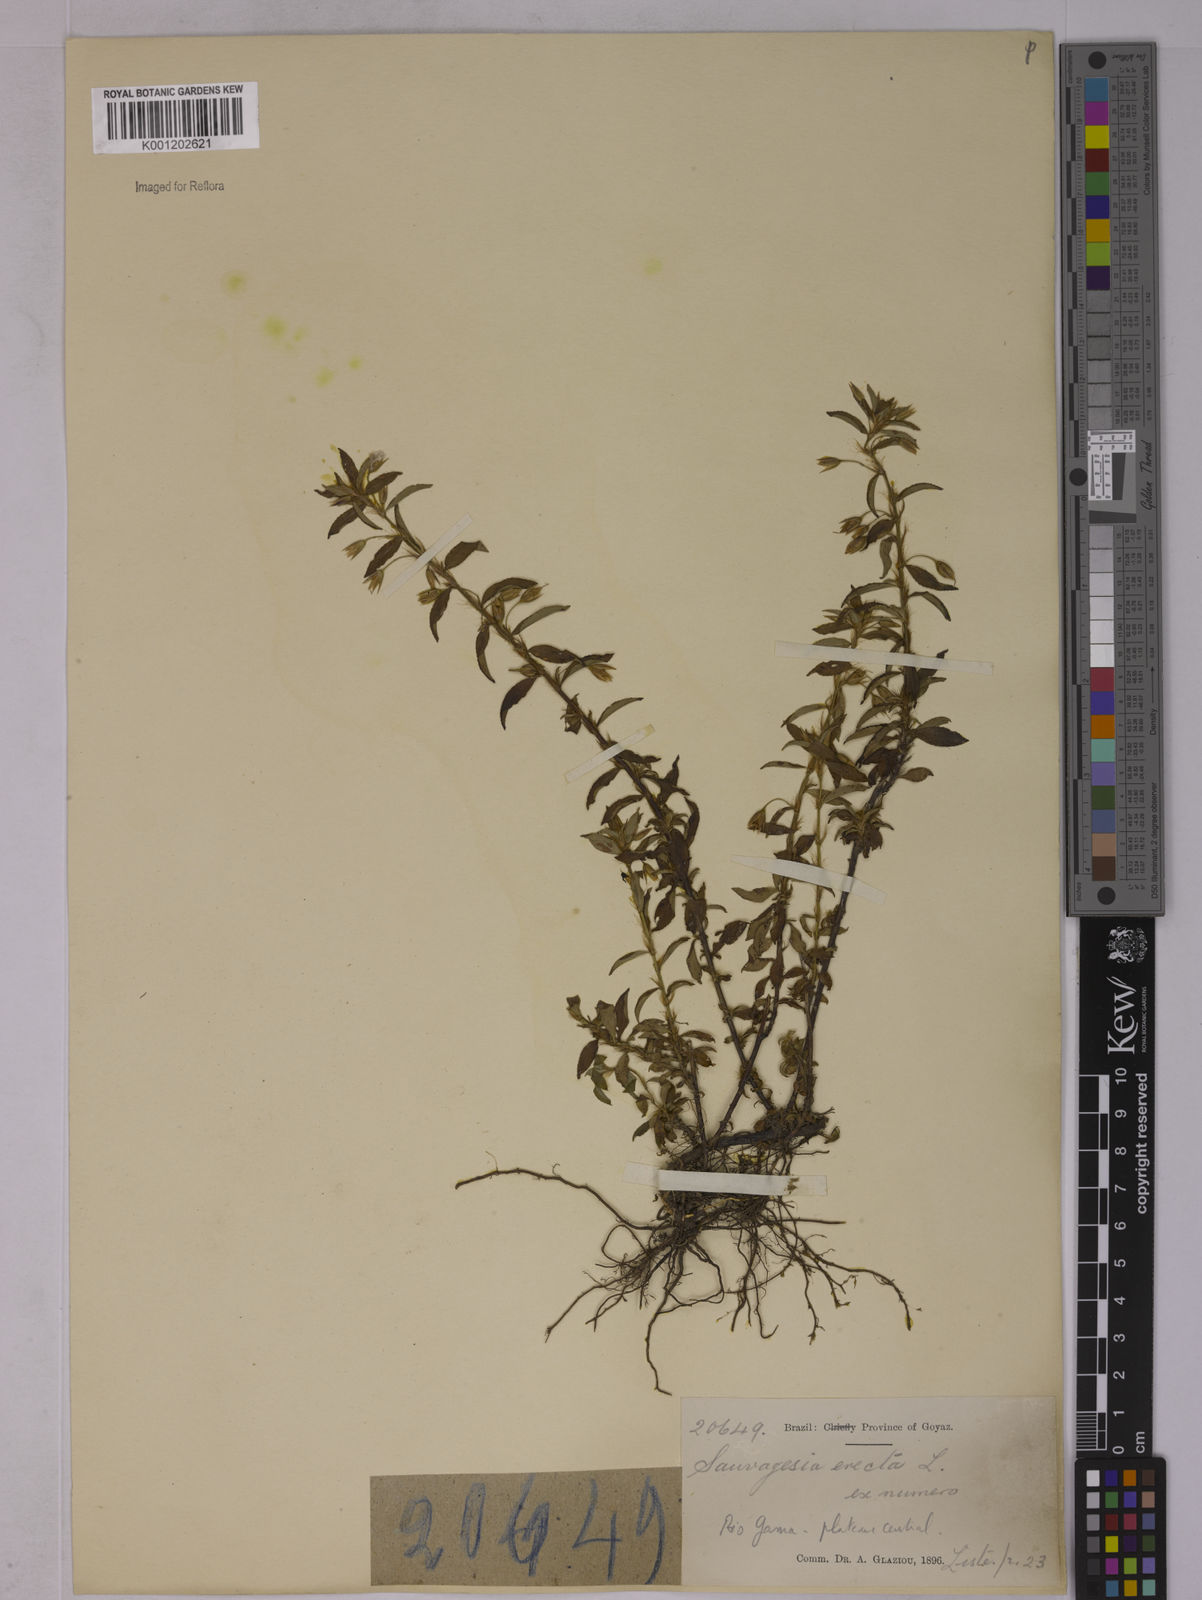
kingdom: Plantae
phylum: Tracheophyta
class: Magnoliopsida
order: Malpighiales
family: Ochnaceae
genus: Sauvagesia
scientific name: Sauvagesia erecta
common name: Creole tea
